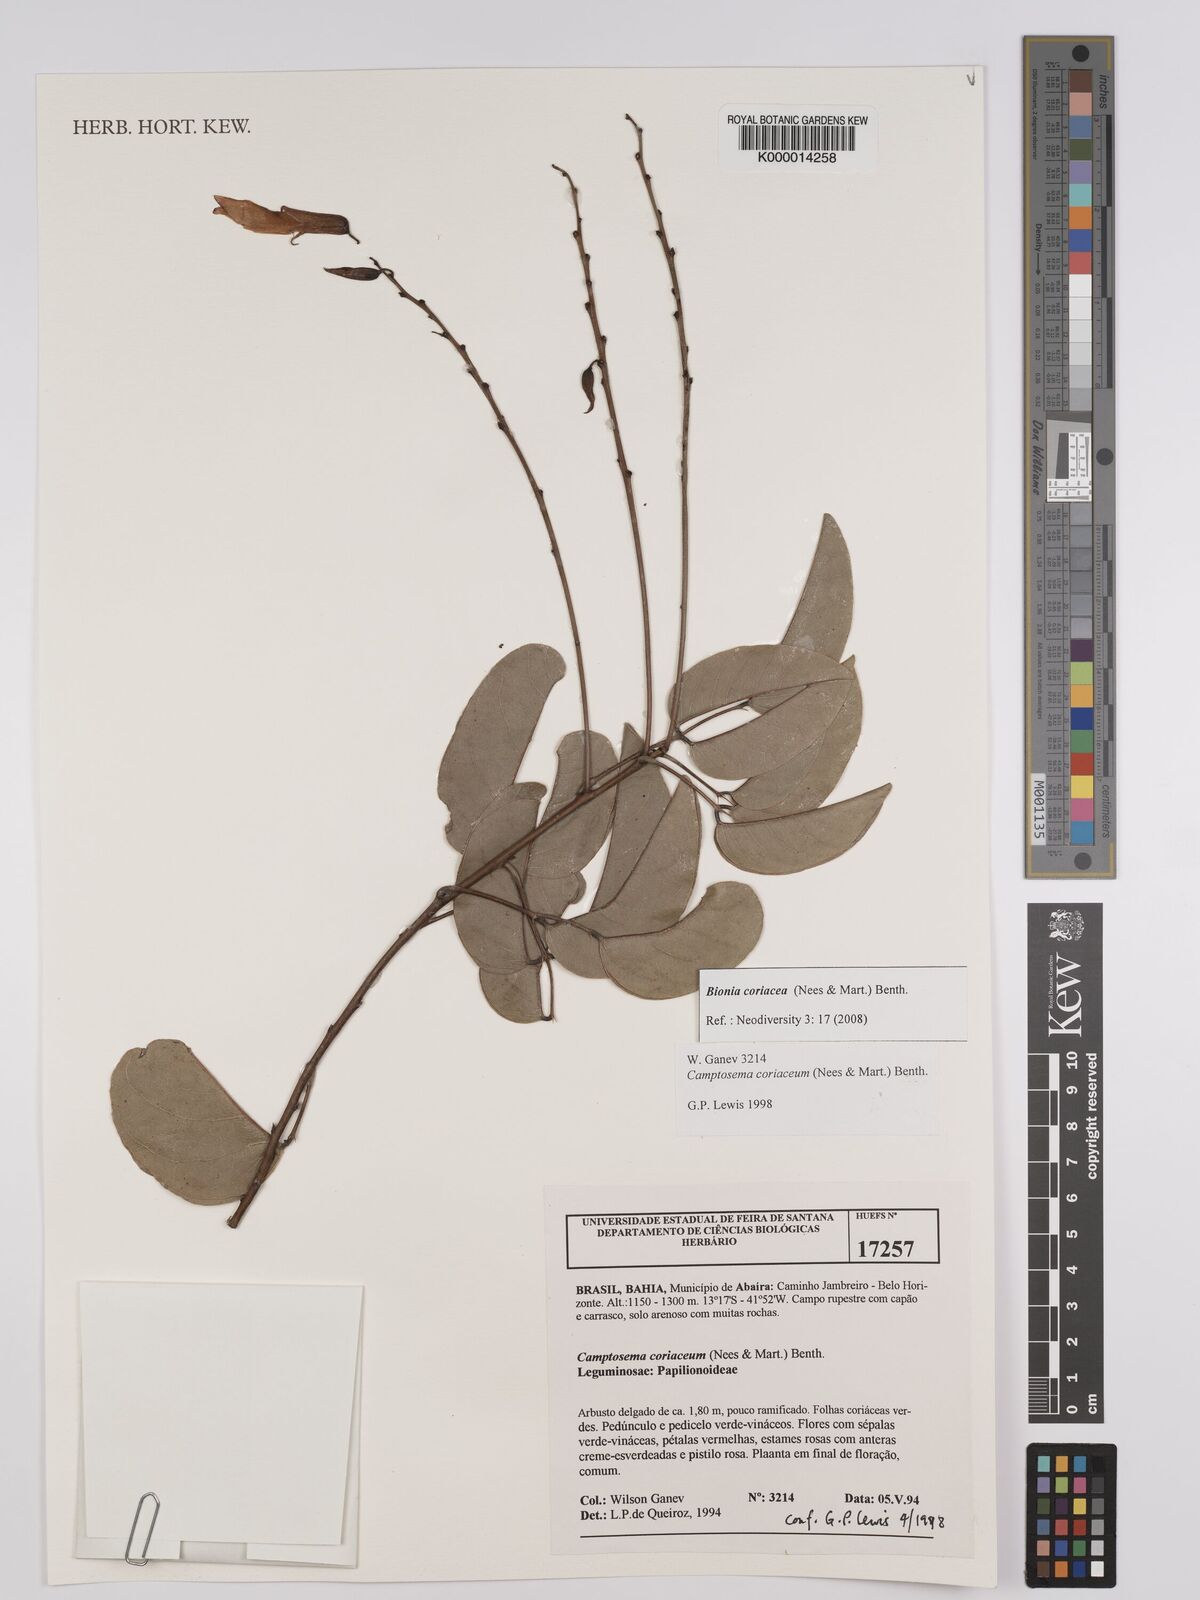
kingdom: Plantae
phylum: Tracheophyta
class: Magnoliopsida
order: Fabales
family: Fabaceae
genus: Camptosema
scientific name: Camptosema coriaceum
